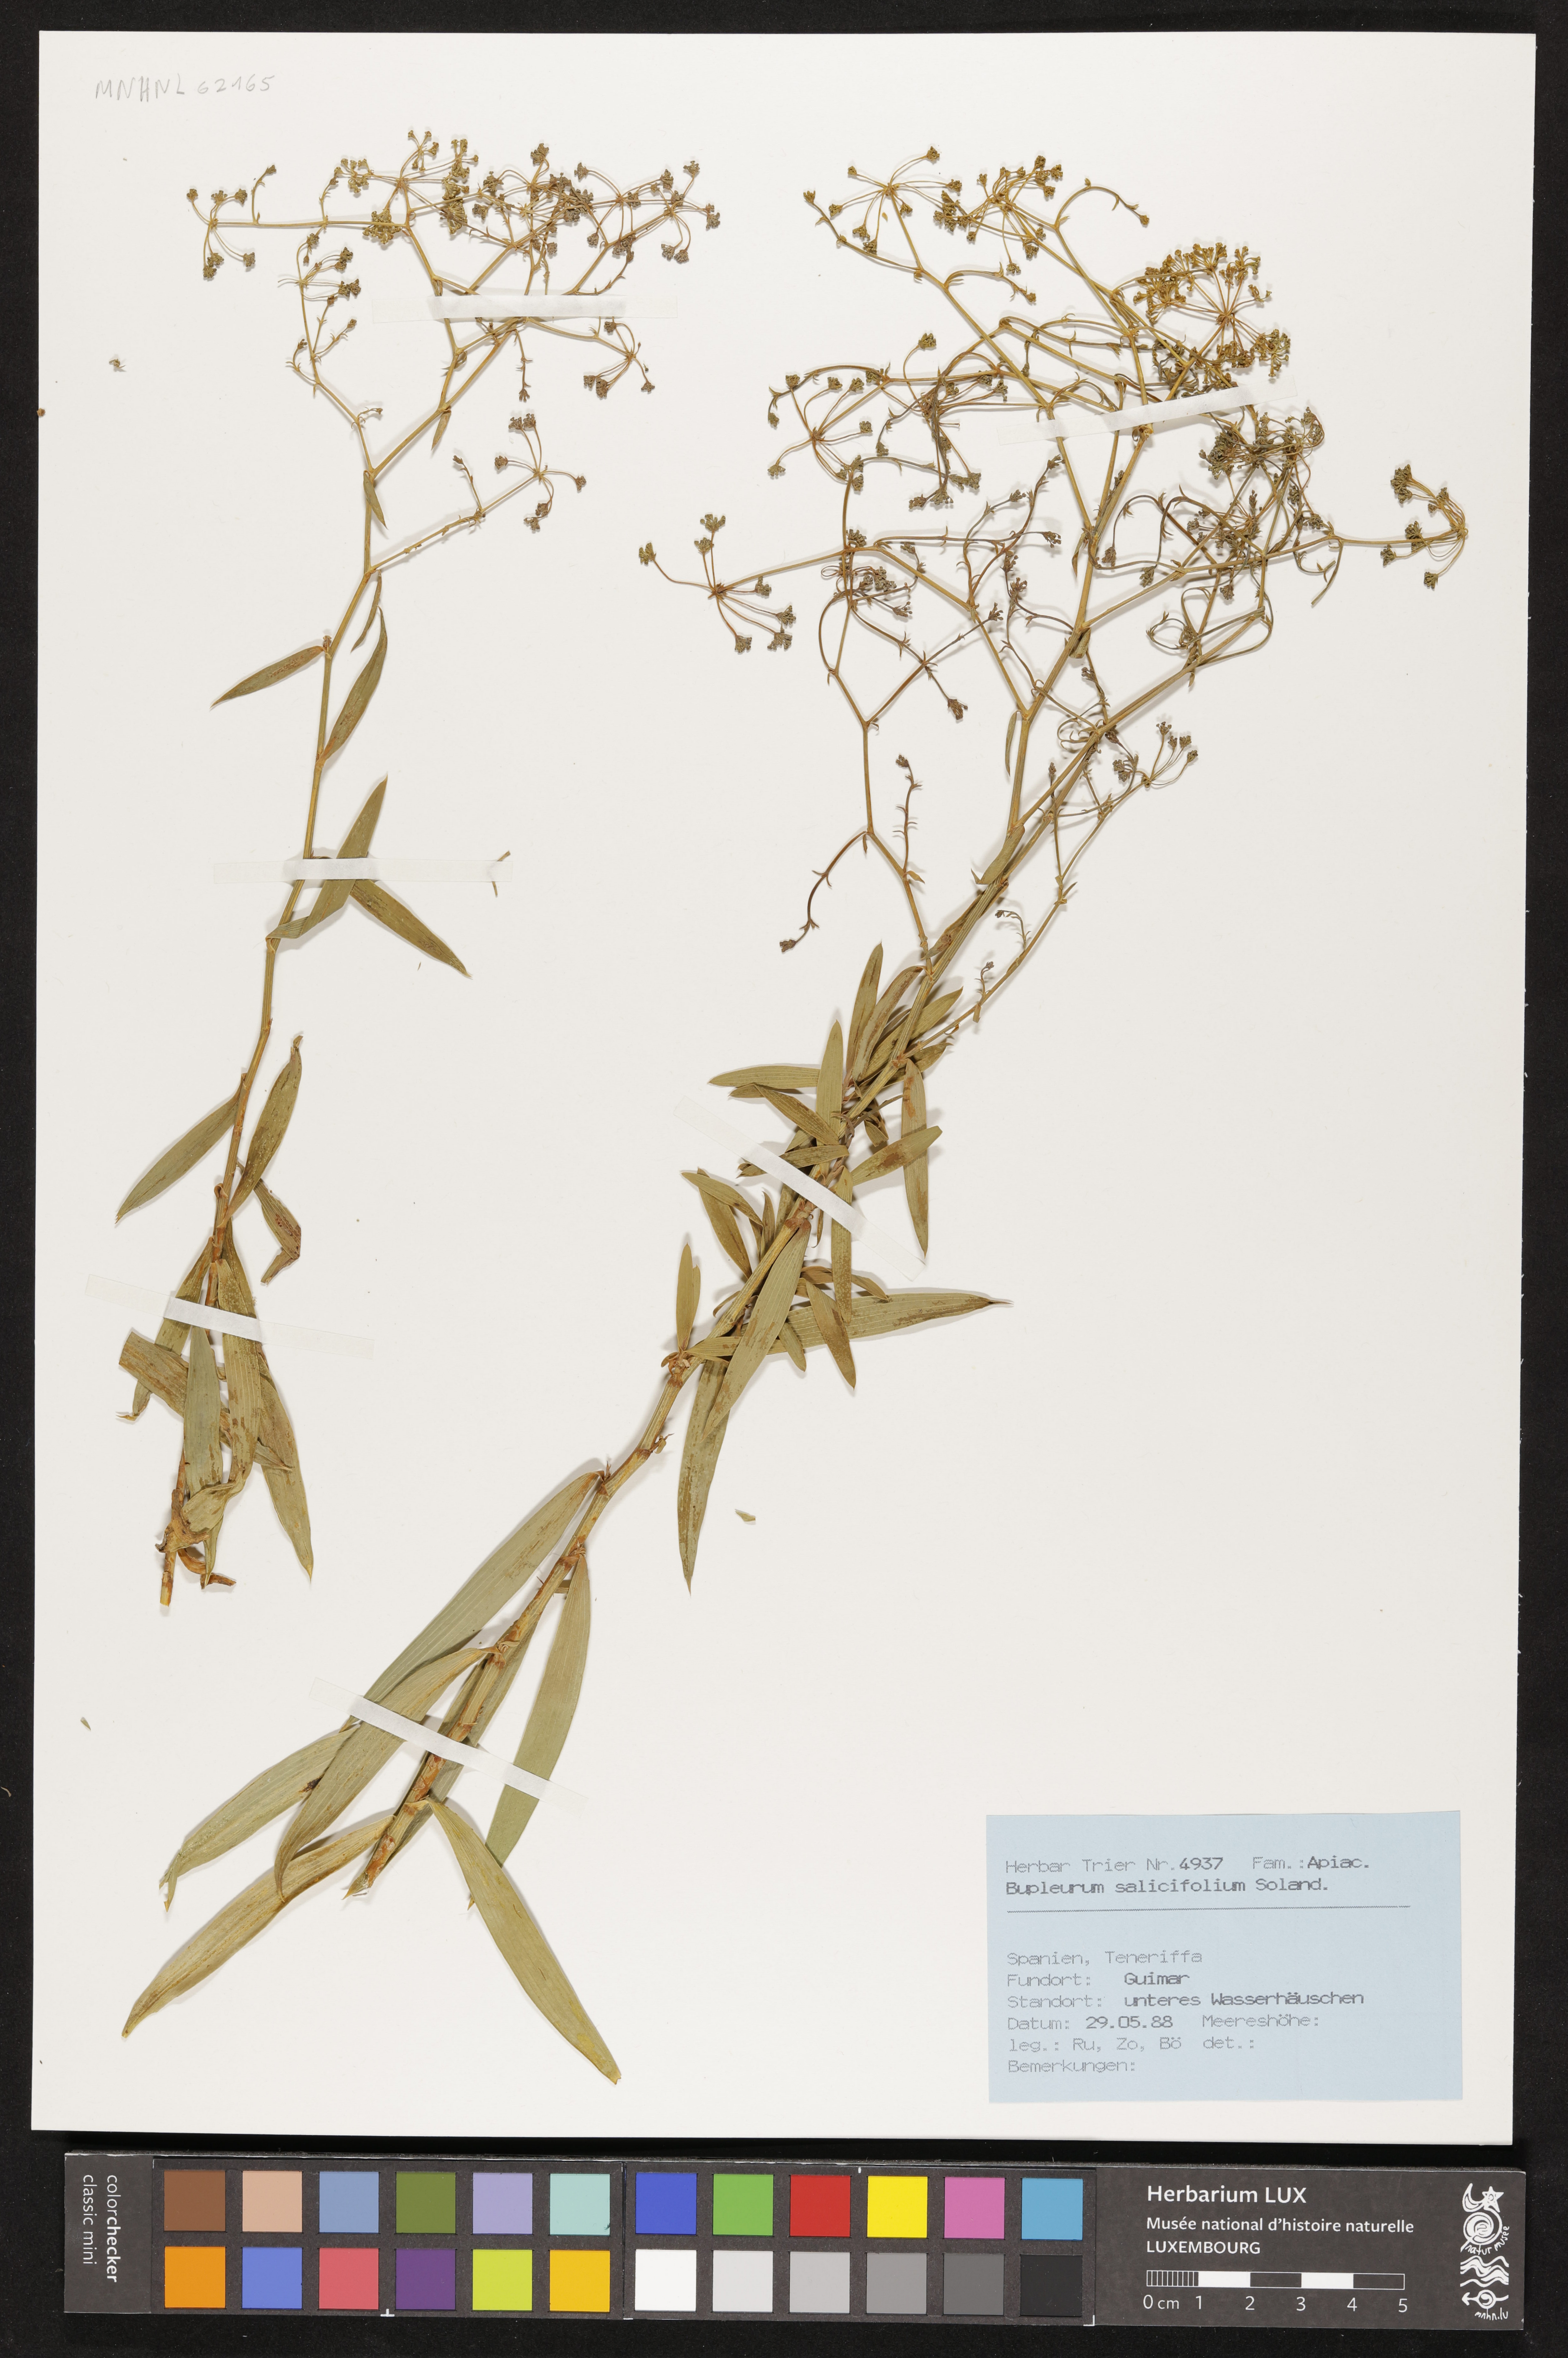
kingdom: Plantae
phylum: Tracheophyta
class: Magnoliopsida
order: Apiales
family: Apiaceae
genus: Bupleurum
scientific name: Bupleurum salicifolium
